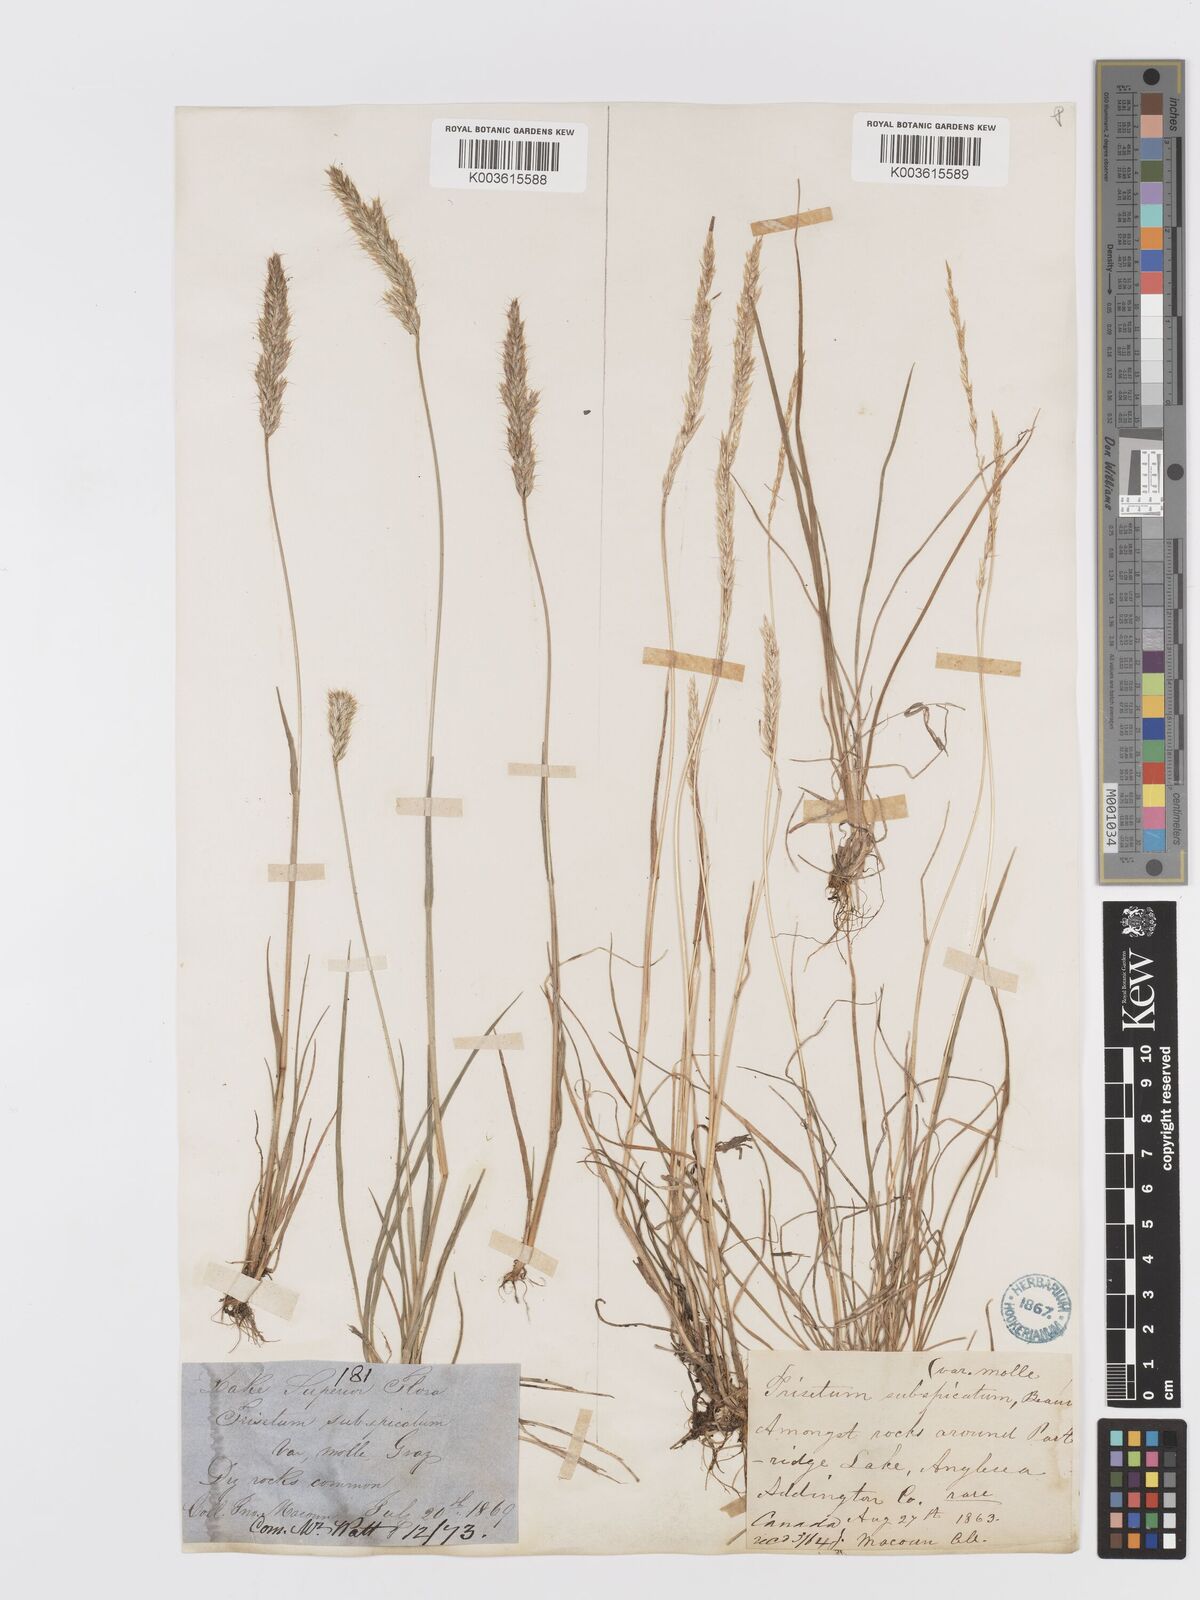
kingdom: Plantae
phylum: Tracheophyta
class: Liliopsida
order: Poales
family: Poaceae
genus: Koeleria
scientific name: Koeleria spicata
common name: Mountain trisetum
